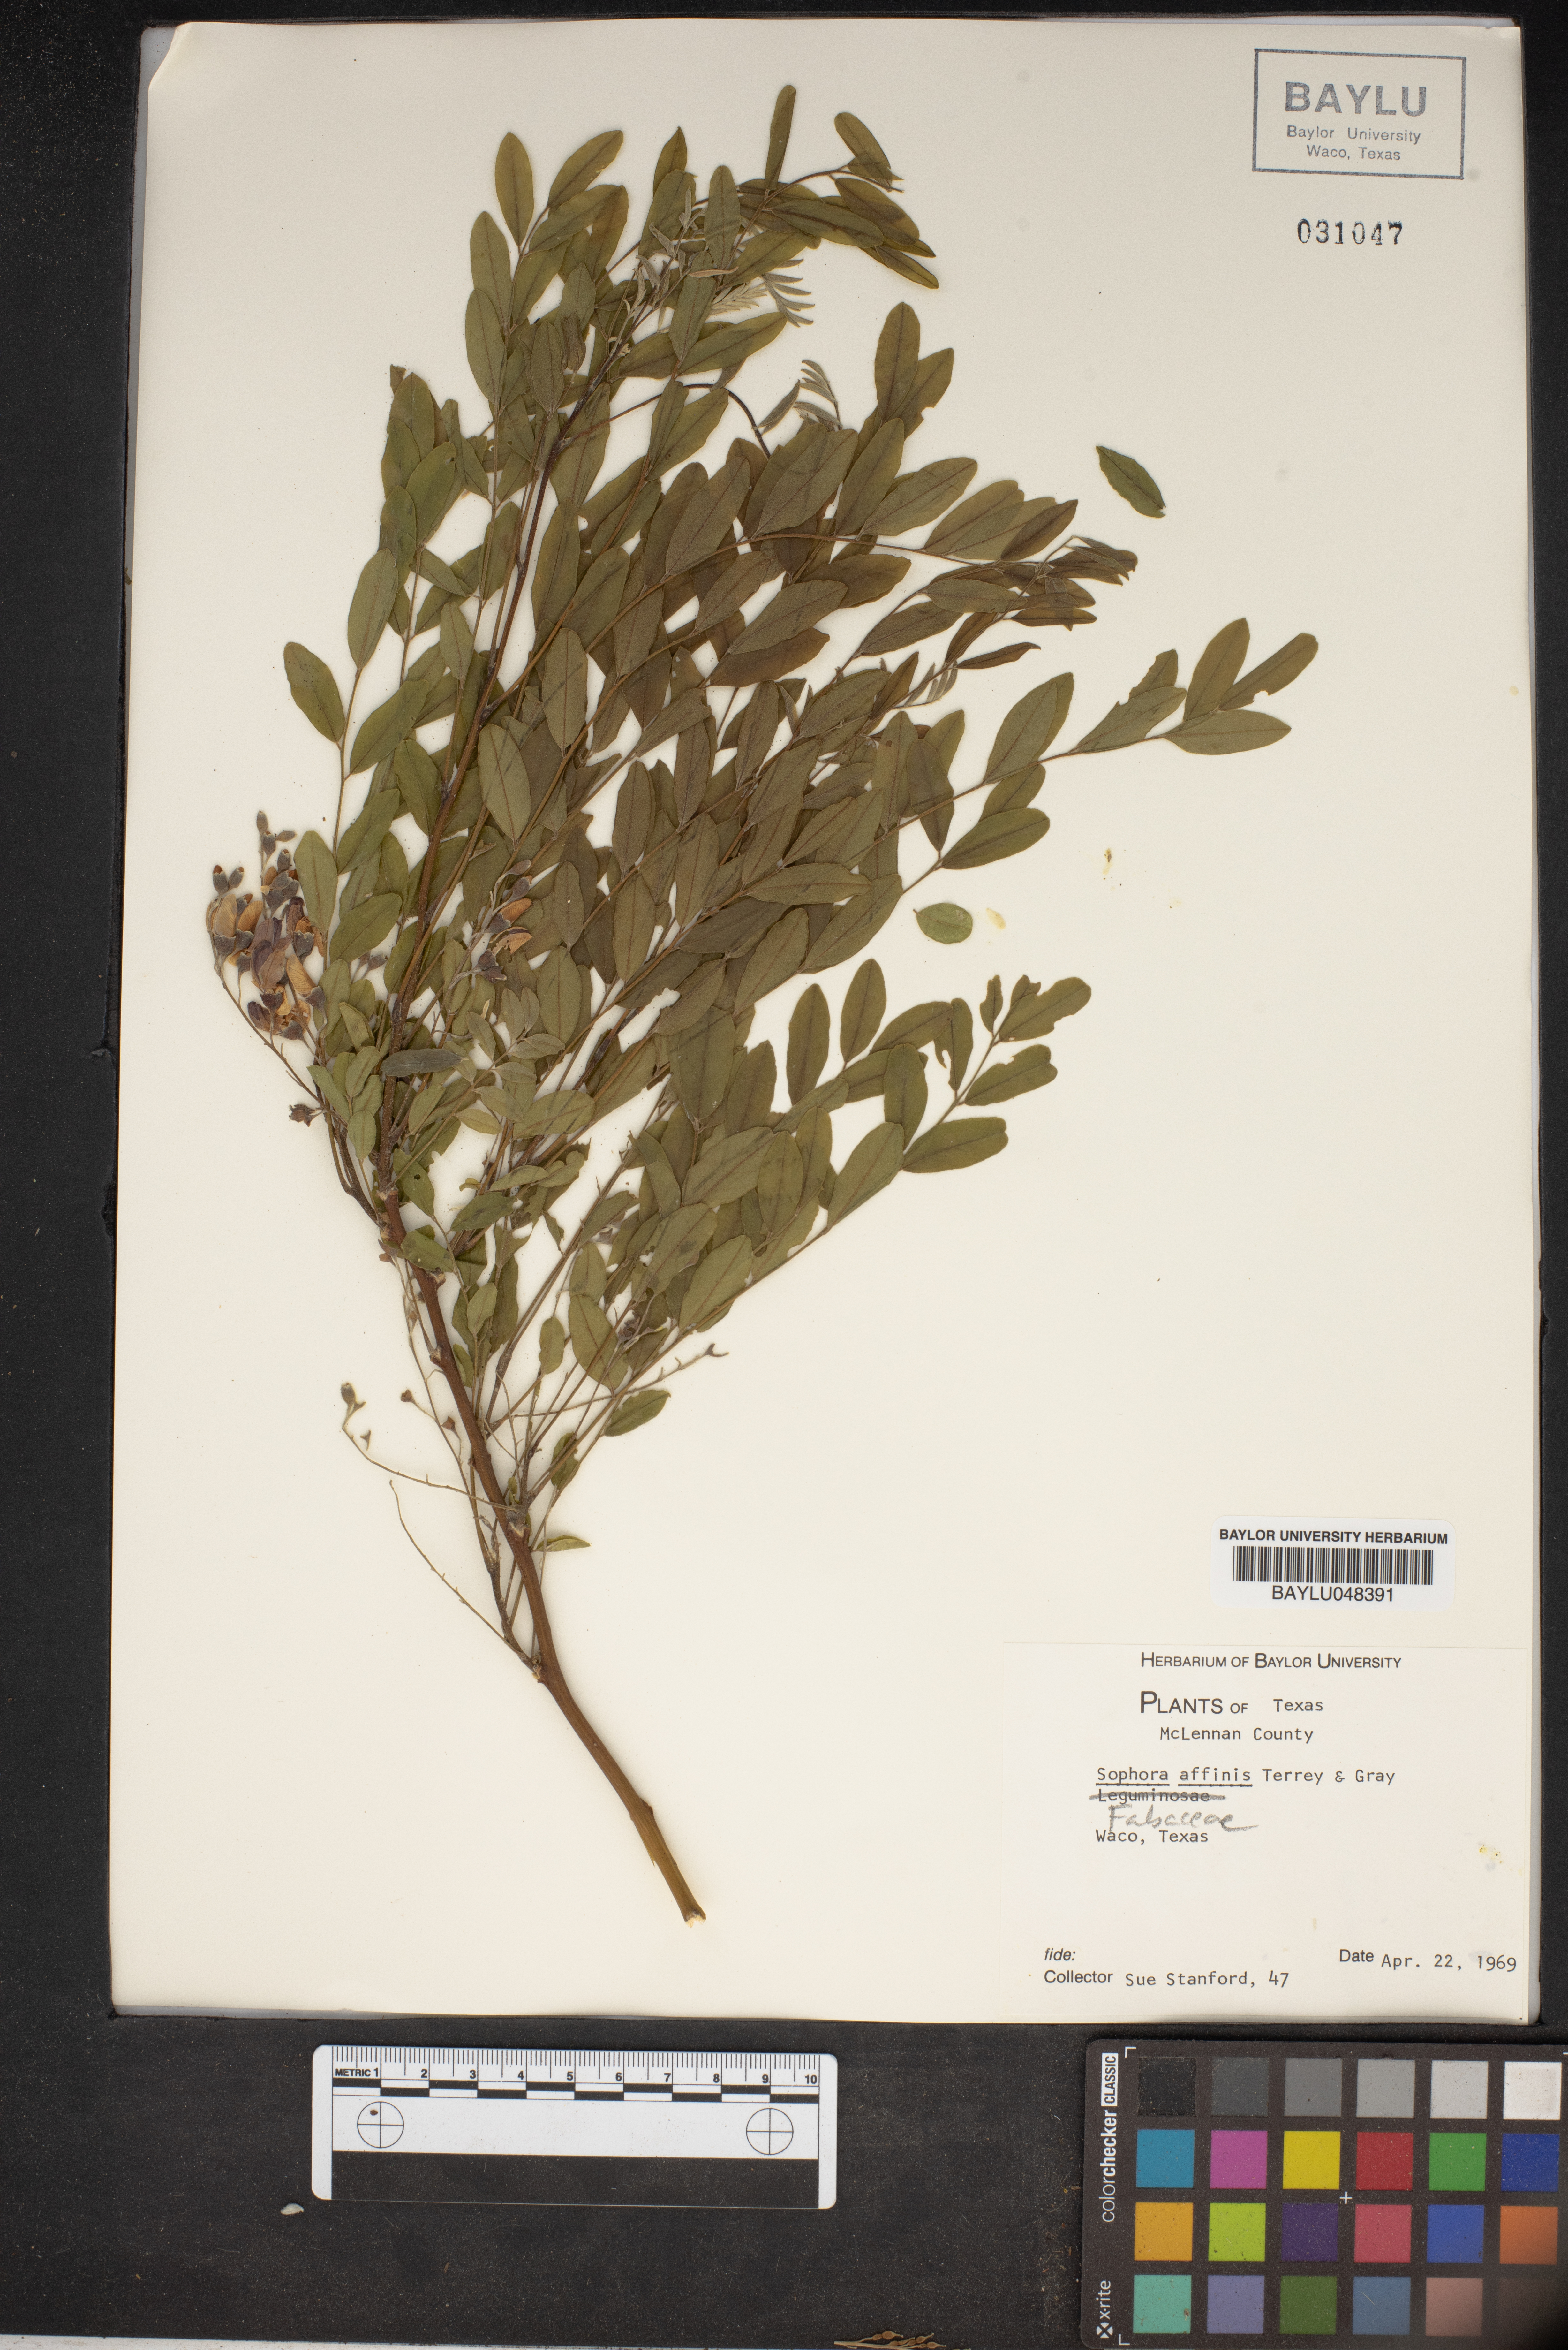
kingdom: Plantae
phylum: Tracheophyta
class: Magnoliopsida
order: Fabales
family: Fabaceae
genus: Styphnolobium
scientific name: Styphnolobium affine
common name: Texas sophora
